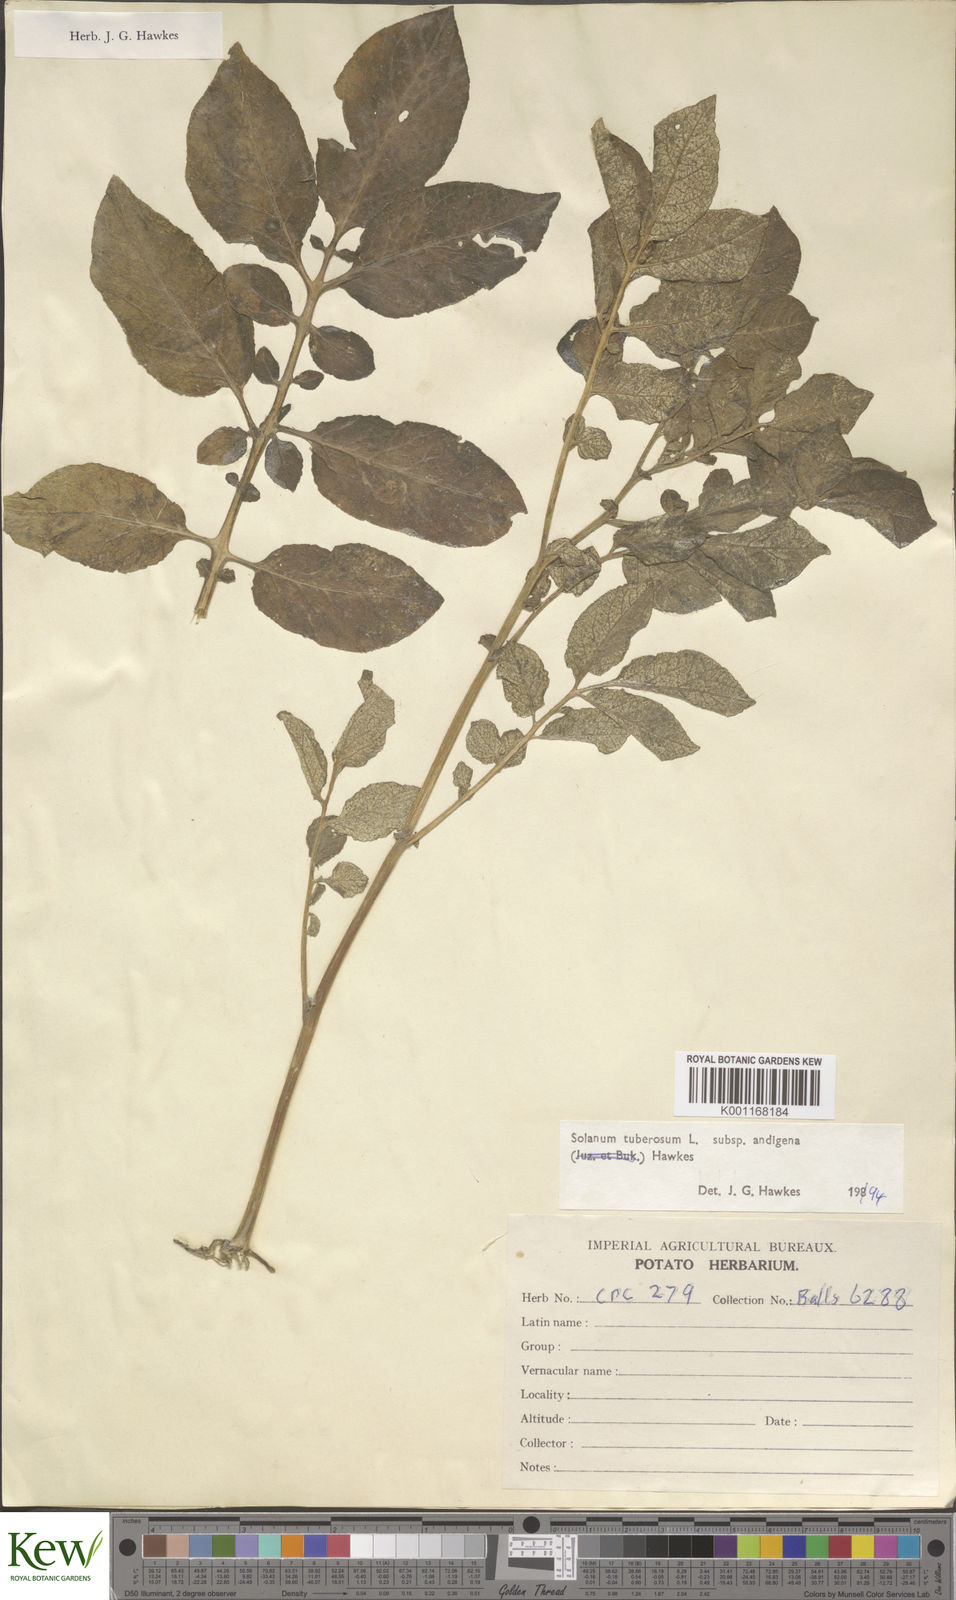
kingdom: Plantae
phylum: Tracheophyta
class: Magnoliopsida
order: Solanales
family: Solanaceae
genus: Solanum
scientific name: Solanum tuberosum
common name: Potato
